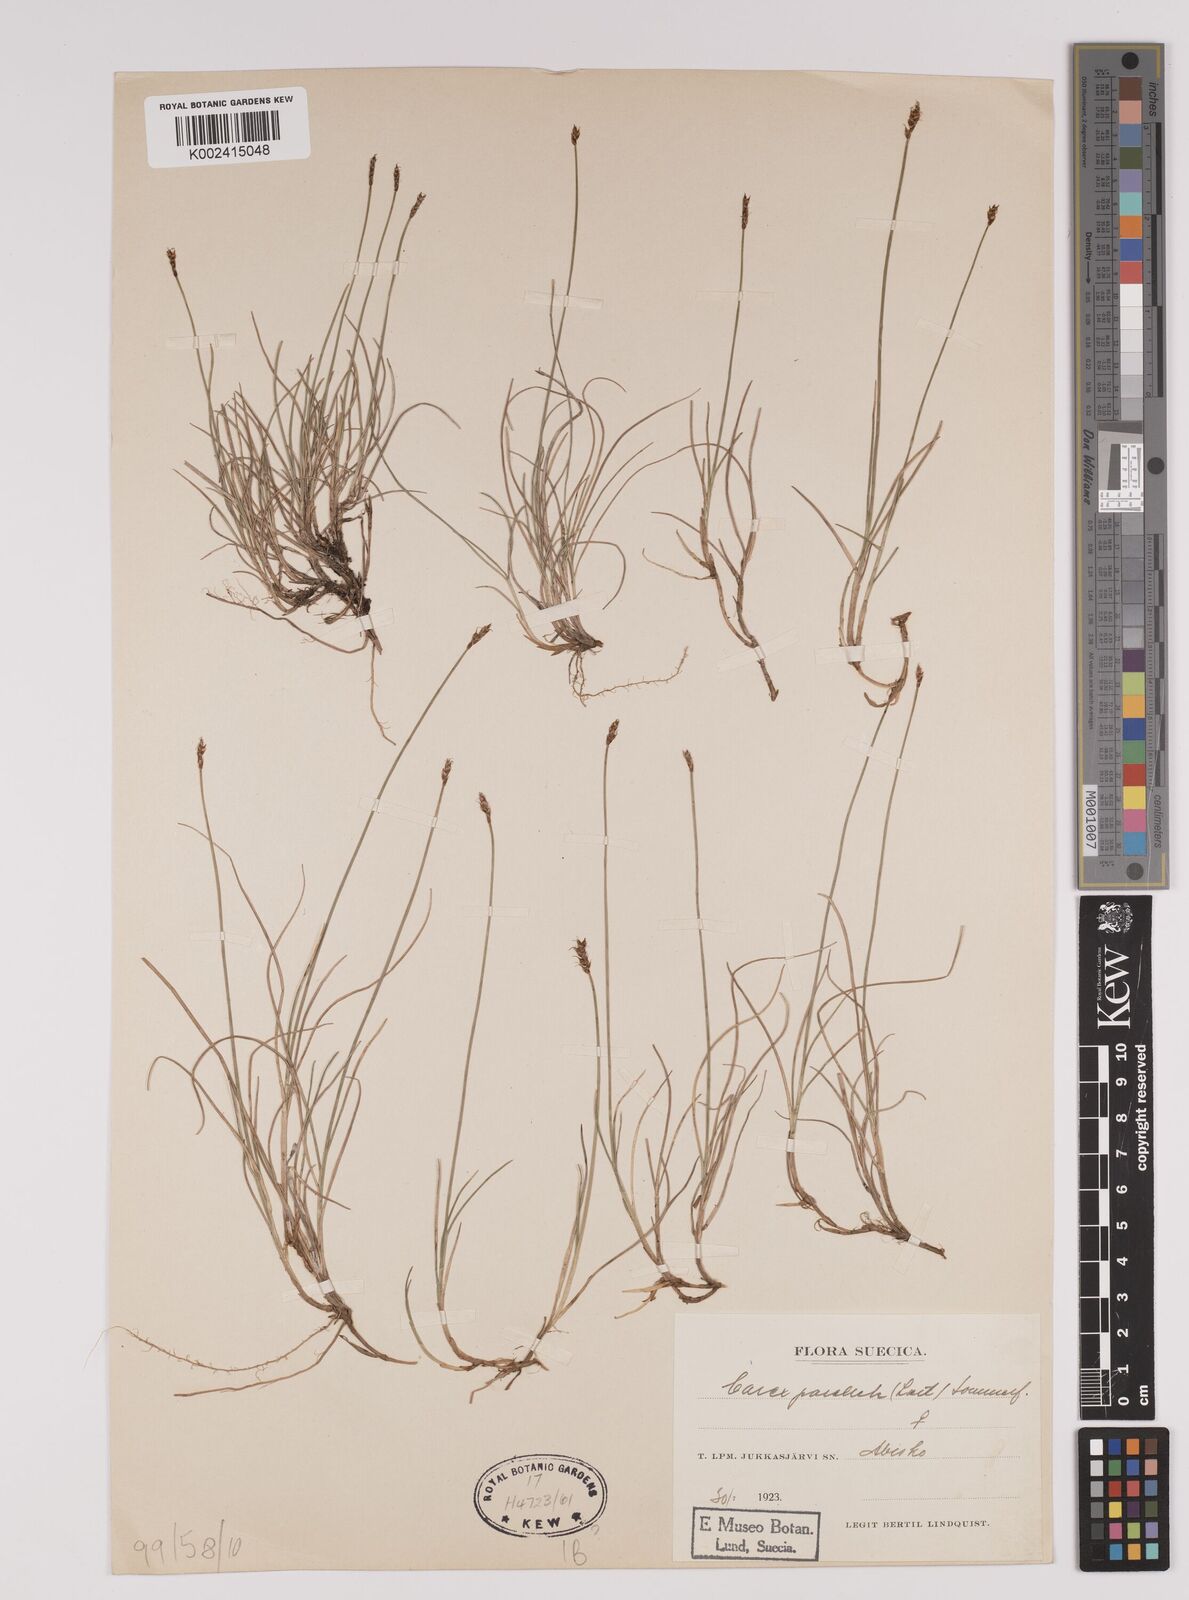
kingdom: Plantae
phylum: Tracheophyta
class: Liliopsida
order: Poales
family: Cyperaceae
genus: Carex
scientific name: Carex parallela
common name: Parallel sedge
